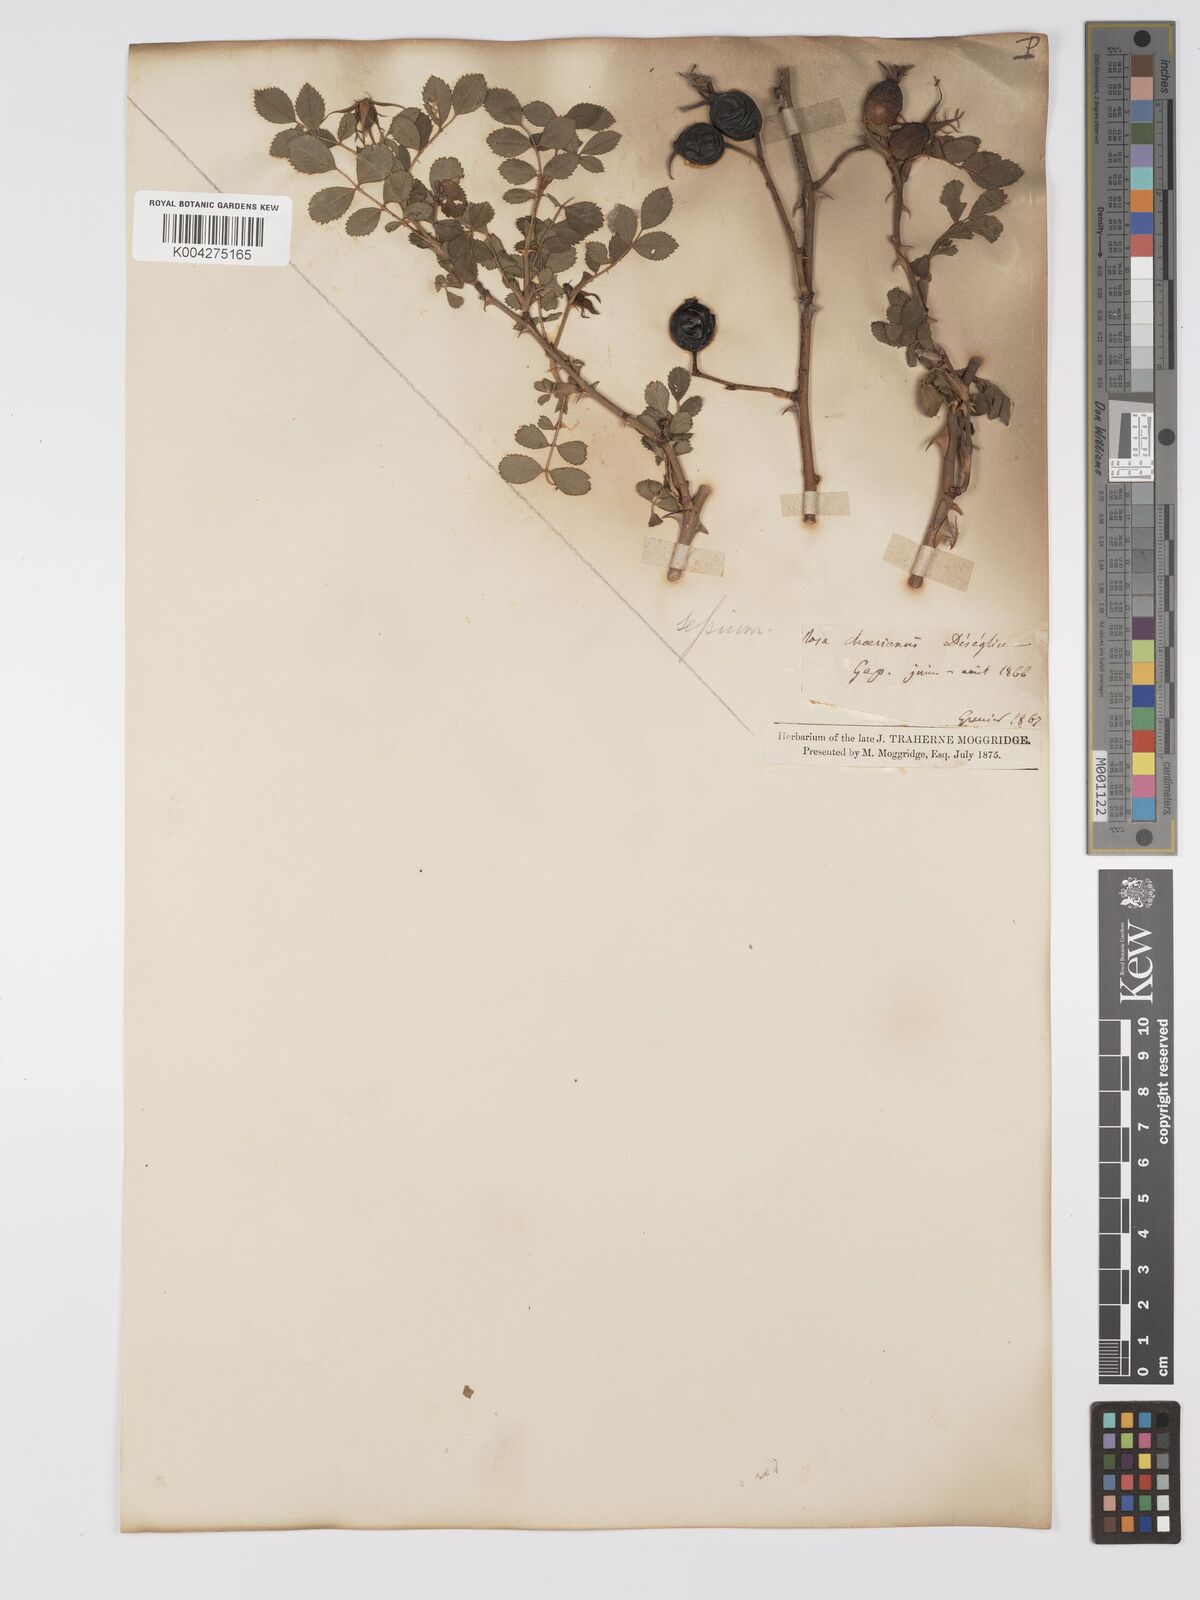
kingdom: Plantae
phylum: Tracheophyta
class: Magnoliopsida
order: Rosales
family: Rosaceae
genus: Rosa
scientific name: Rosa
